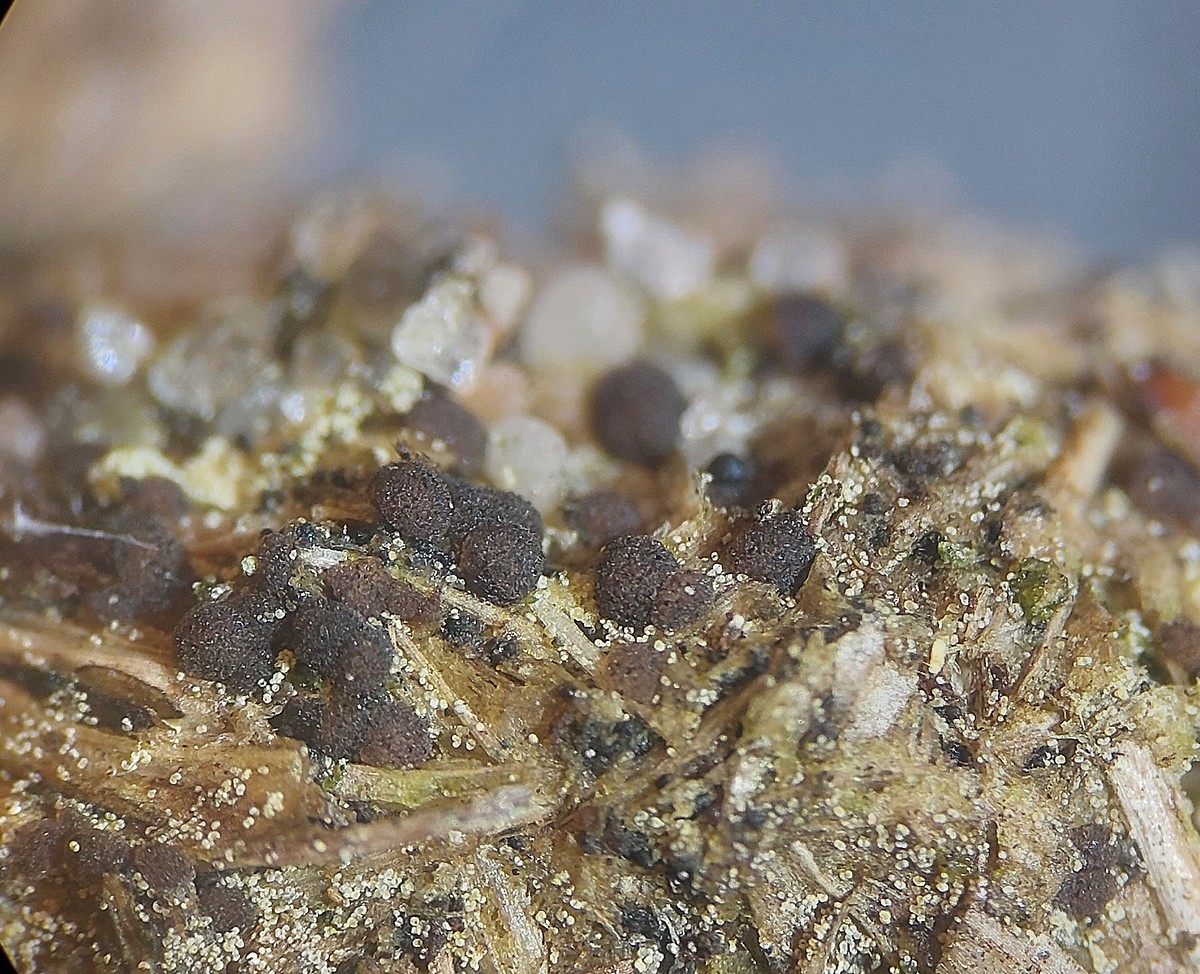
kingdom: Fungi
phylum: Ascomycota
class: Pezizomycetes
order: Pezizales
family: Ascobolaceae
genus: Saccobolus
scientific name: Saccobolus obscurus
